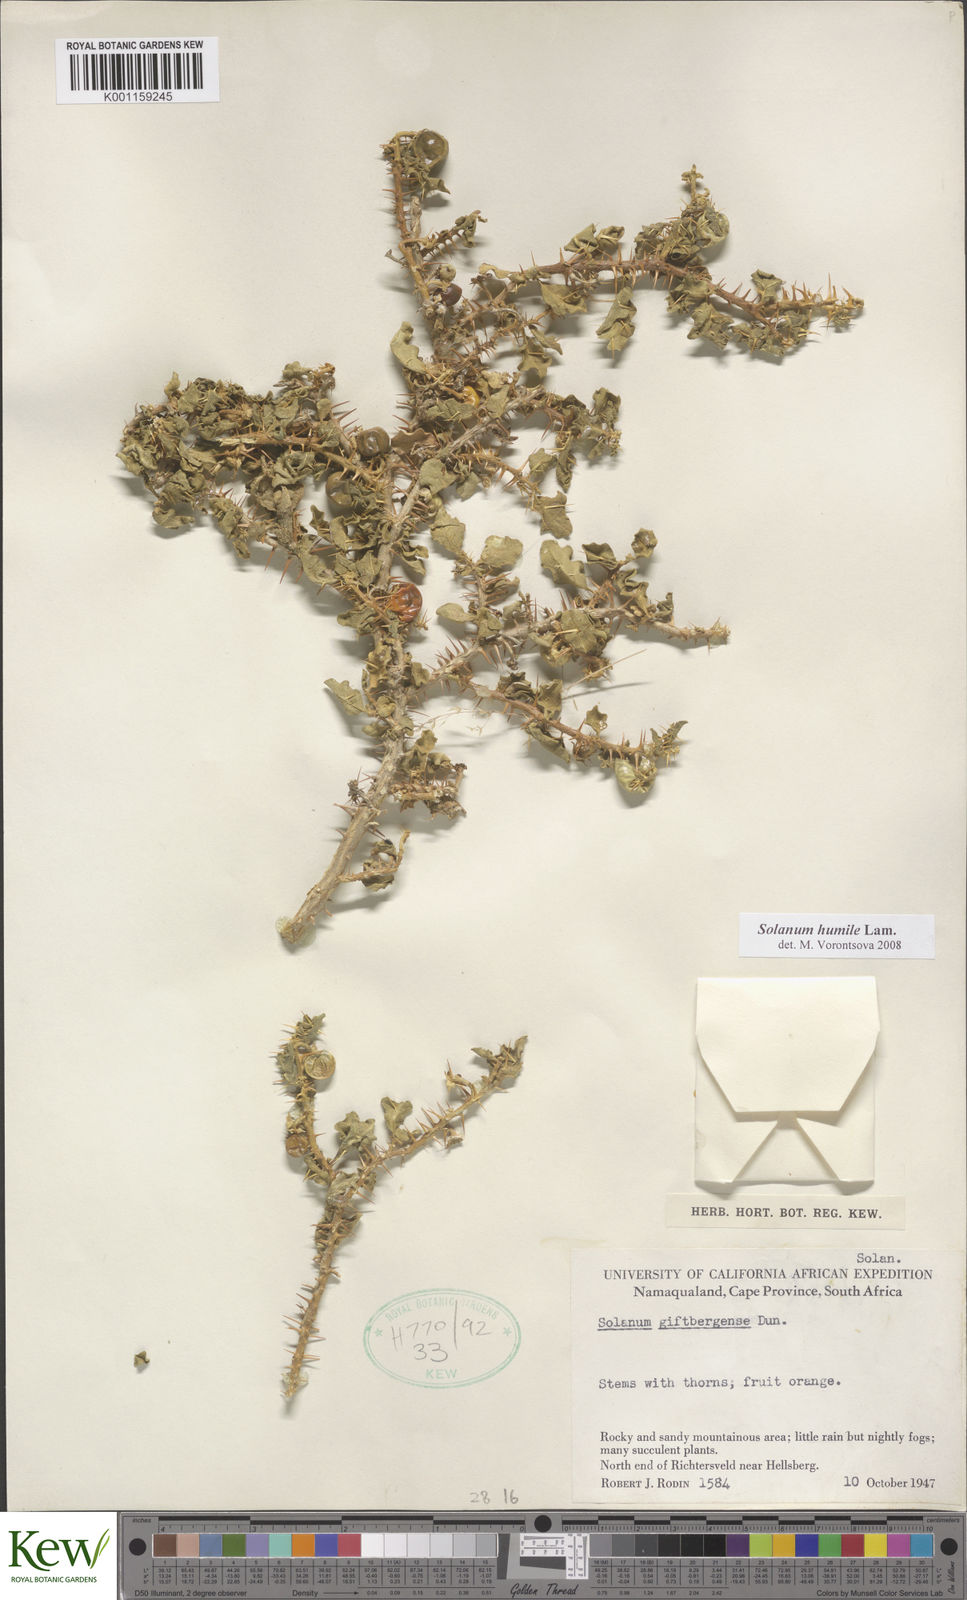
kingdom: Plantae
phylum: Tracheophyta
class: Magnoliopsida
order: Solanales
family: Solanaceae
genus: Solanum
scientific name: Solanum humile
